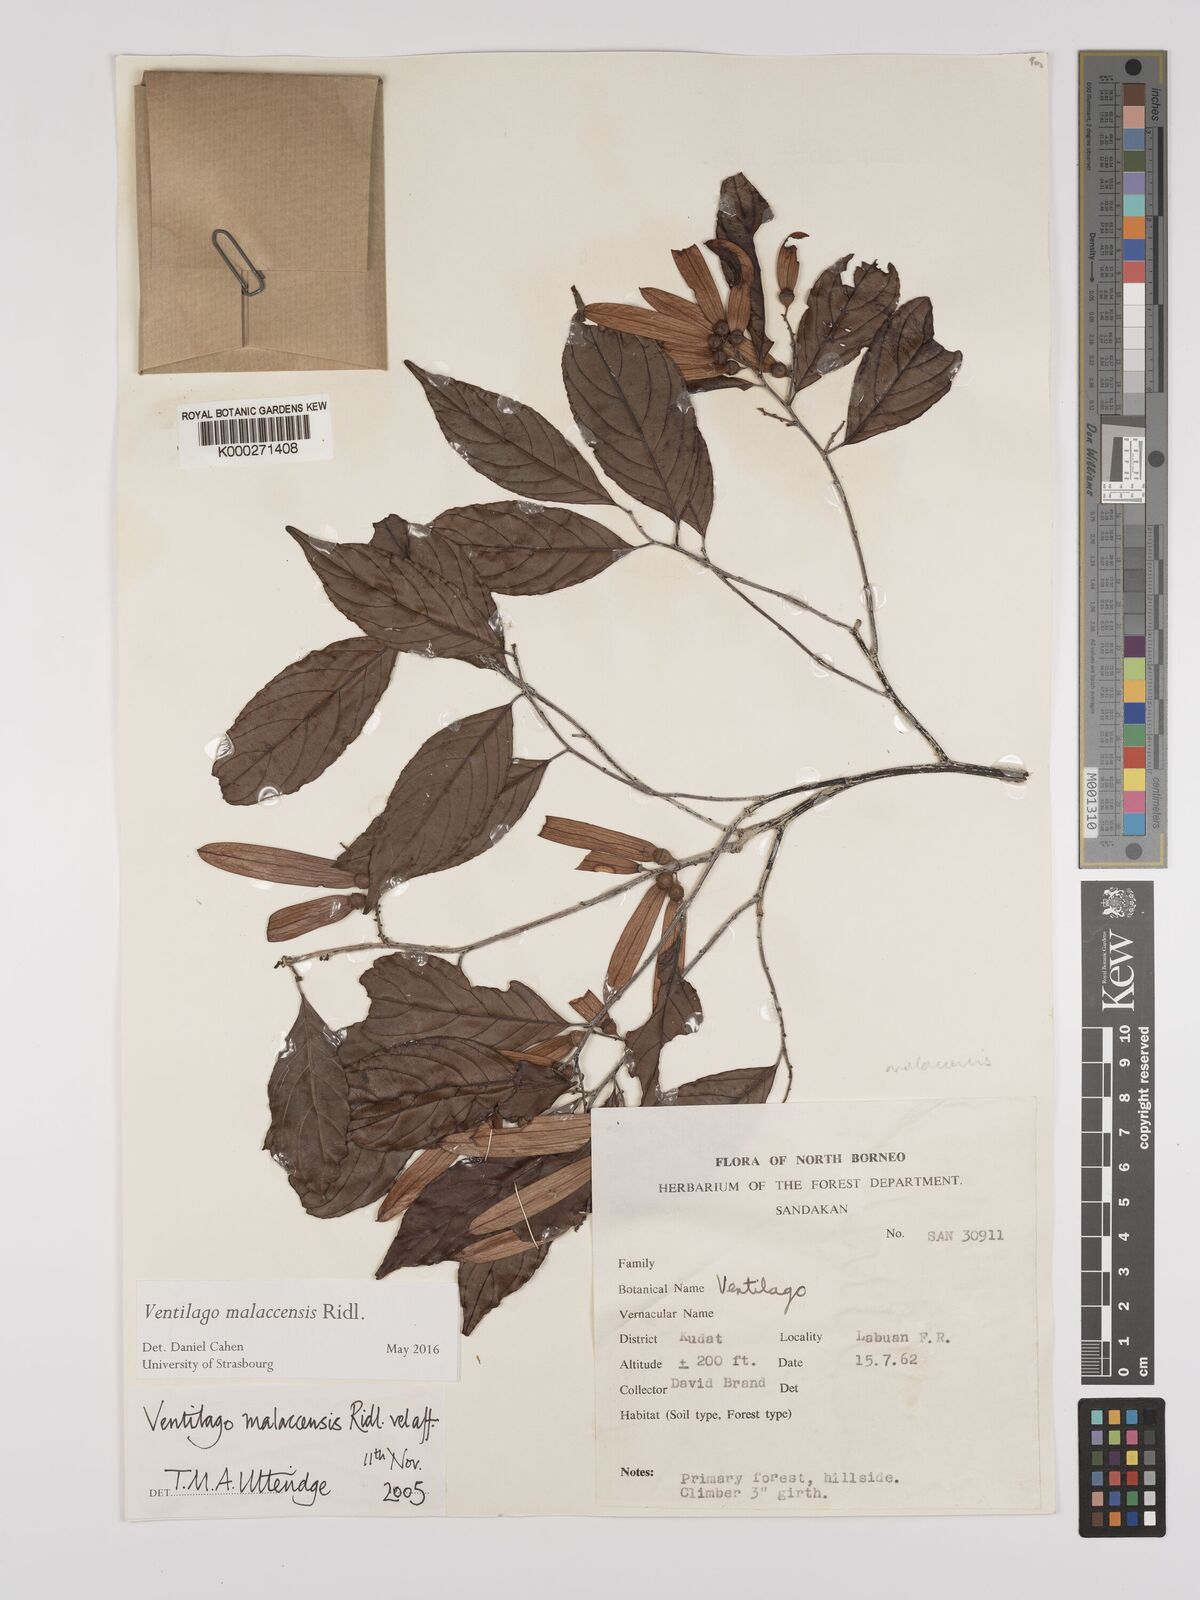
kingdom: Plantae
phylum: Tracheophyta
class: Magnoliopsida
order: Rosales
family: Rhamnaceae
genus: Ventilago
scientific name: Ventilago
